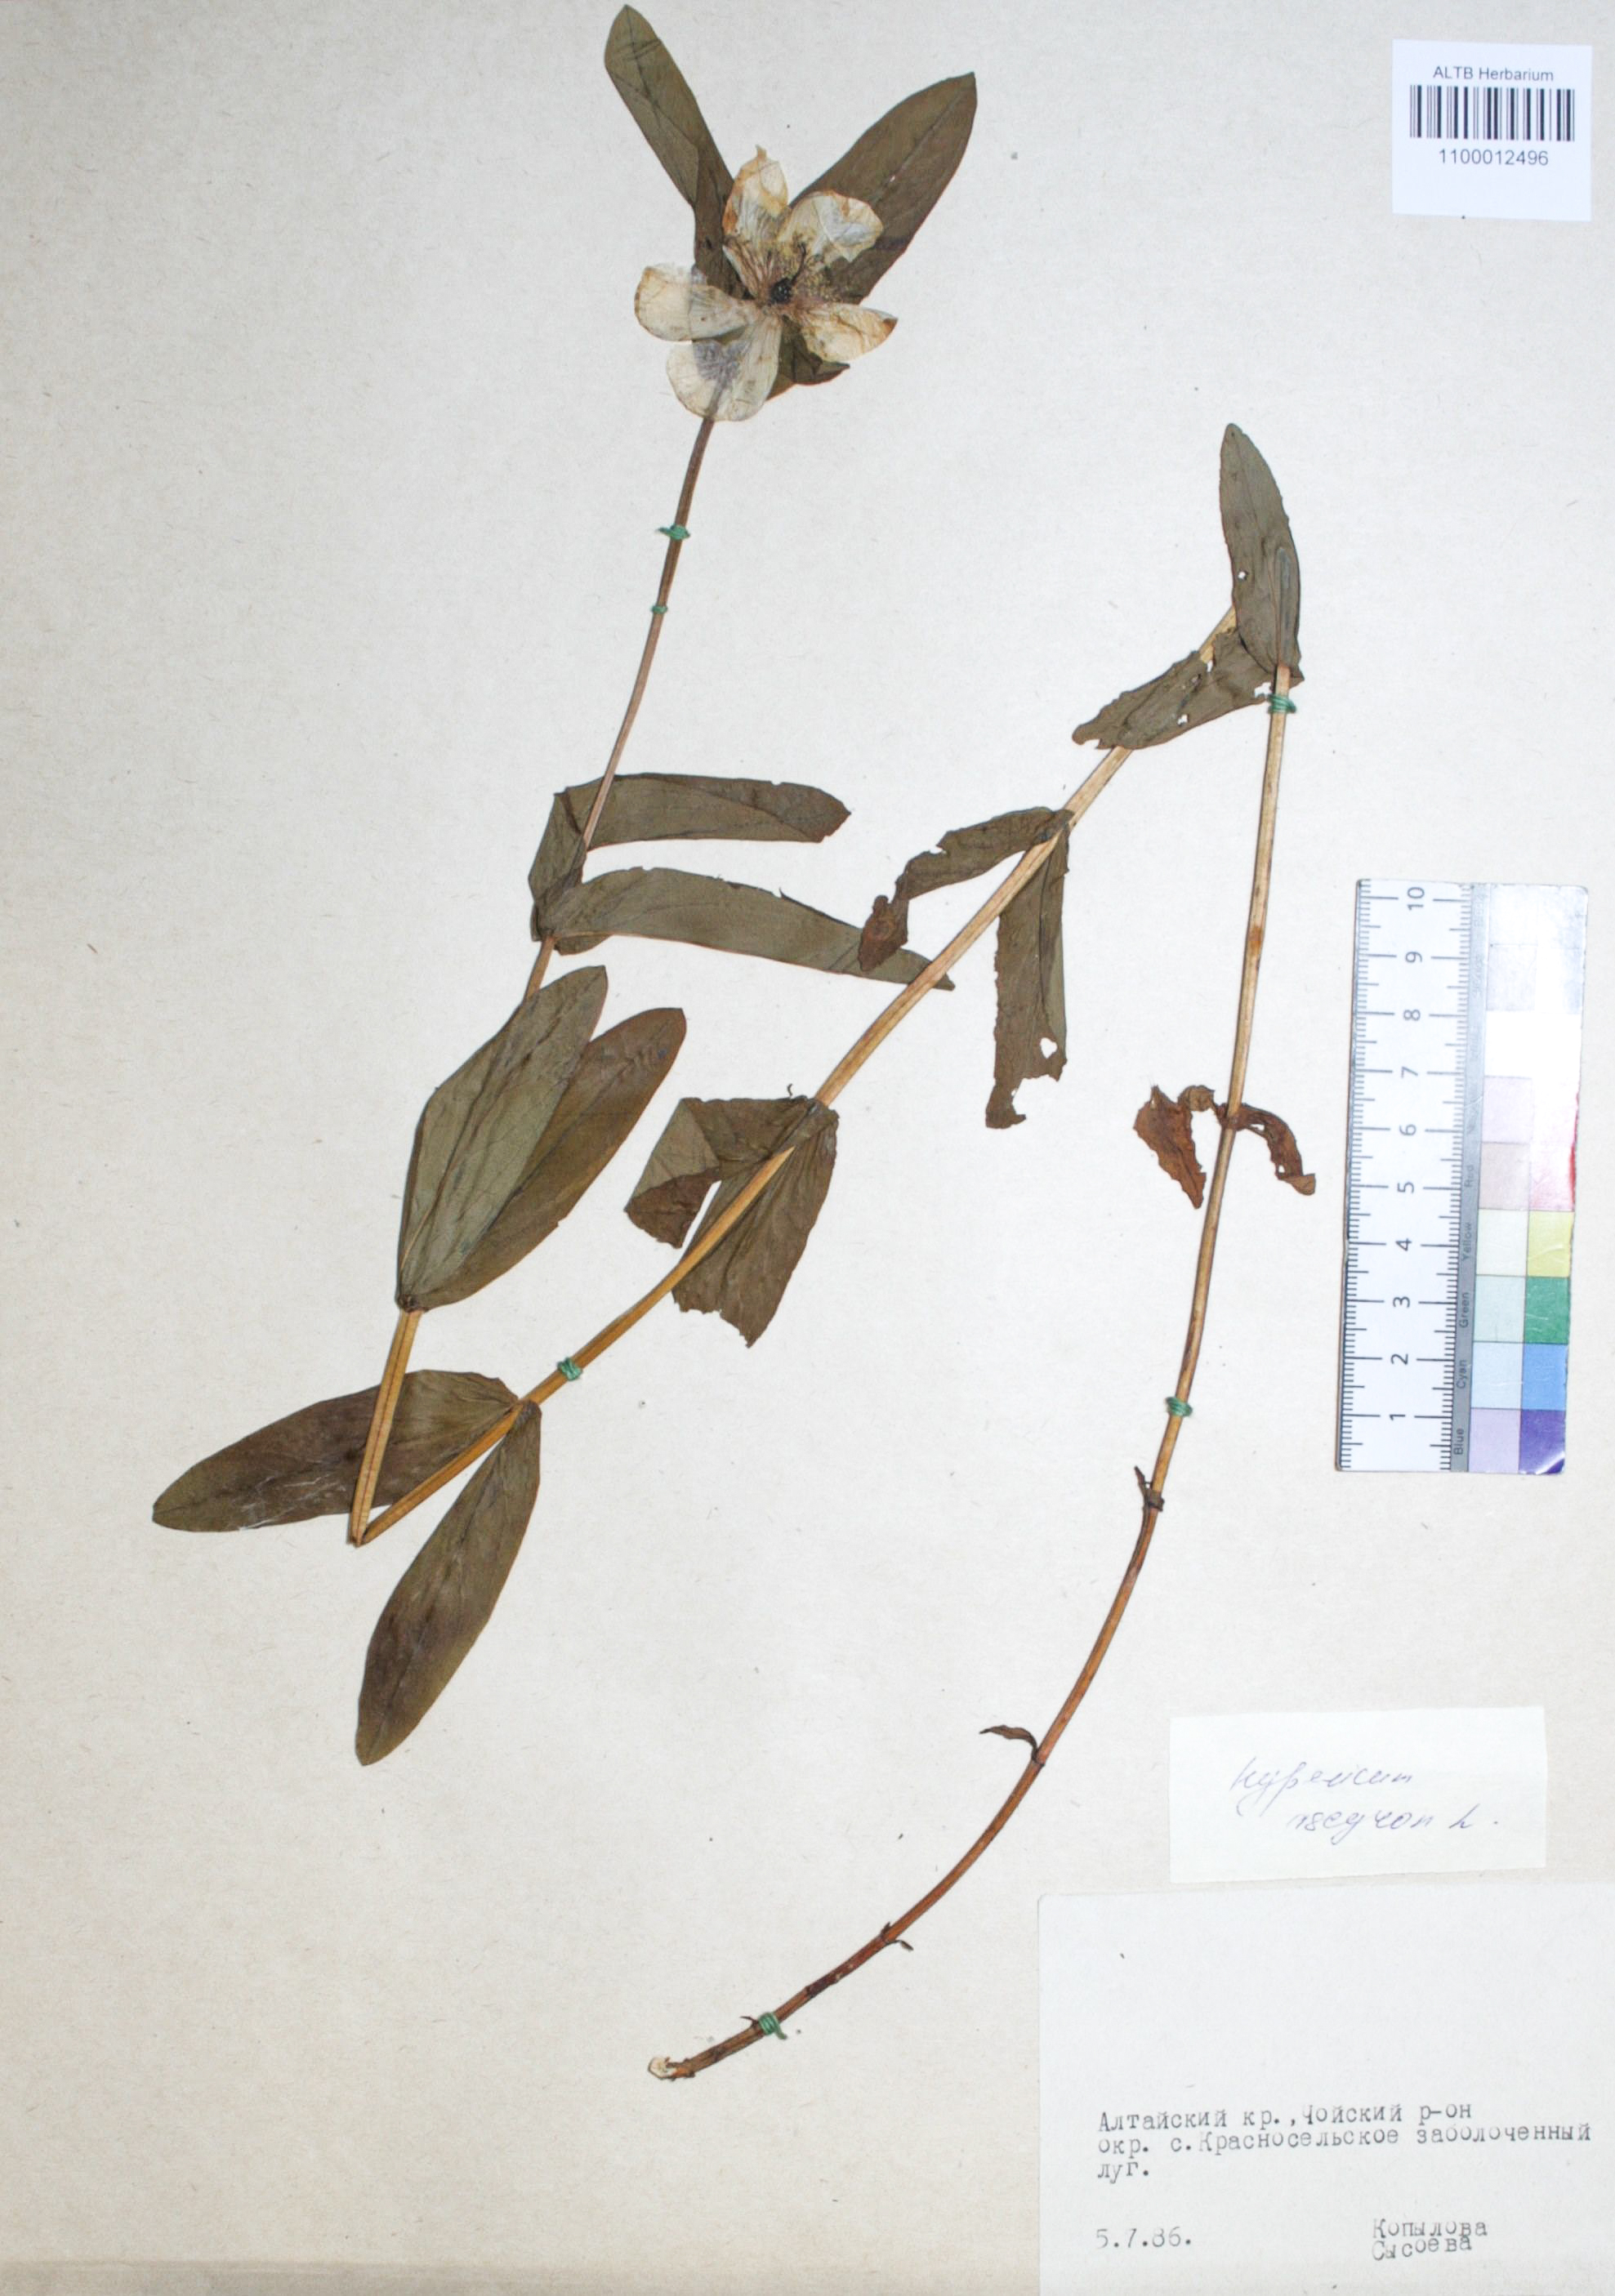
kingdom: Plantae
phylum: Tracheophyta
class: Magnoliopsida
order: Malpighiales
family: Hypericaceae
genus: Hypericum
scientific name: Hypericum ascyron
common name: Giant st. john's-wort
